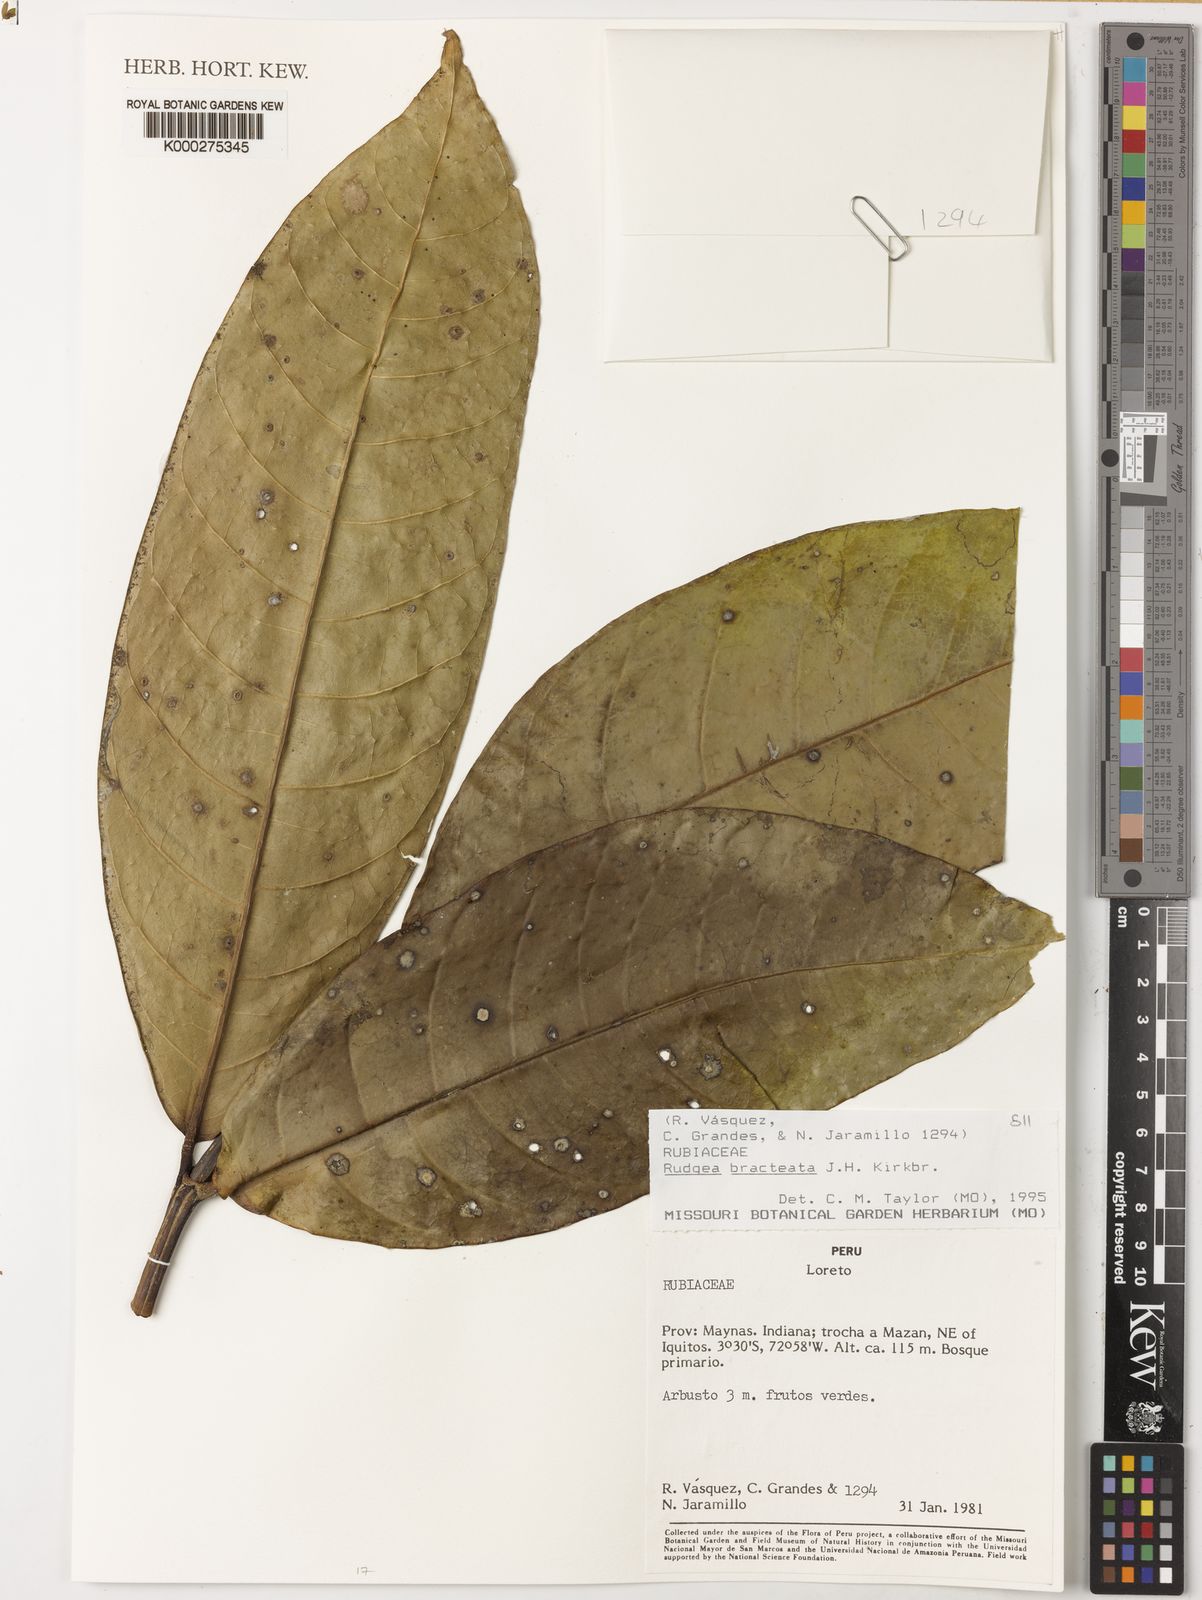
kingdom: Plantae
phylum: Tracheophyta
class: Magnoliopsida
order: Gentianales
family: Rubiaceae
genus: Rudgea
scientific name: Rudgea
